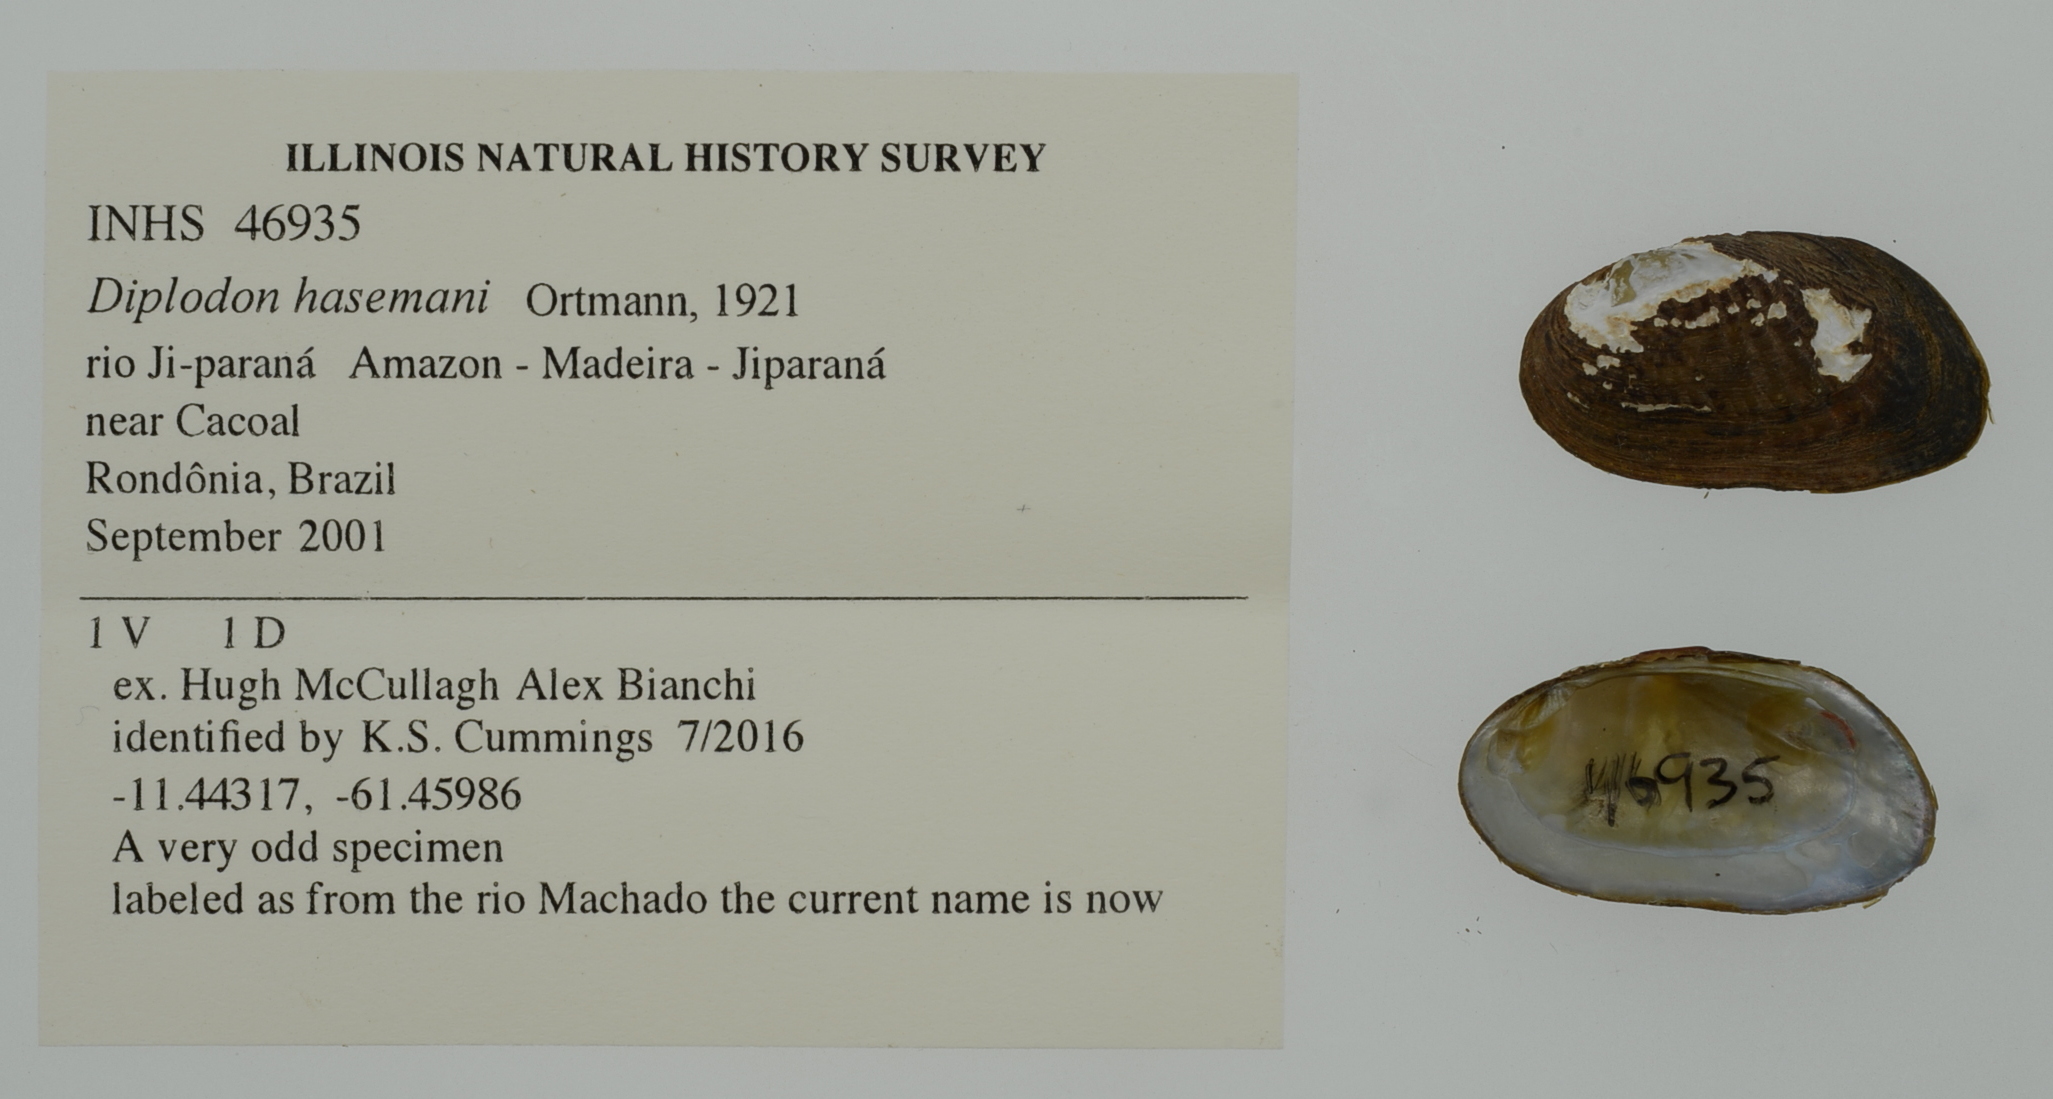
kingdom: Animalia
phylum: Mollusca
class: Bivalvia
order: Unionida
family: Hyriidae
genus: Diplodon
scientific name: Diplodon guaranianus
